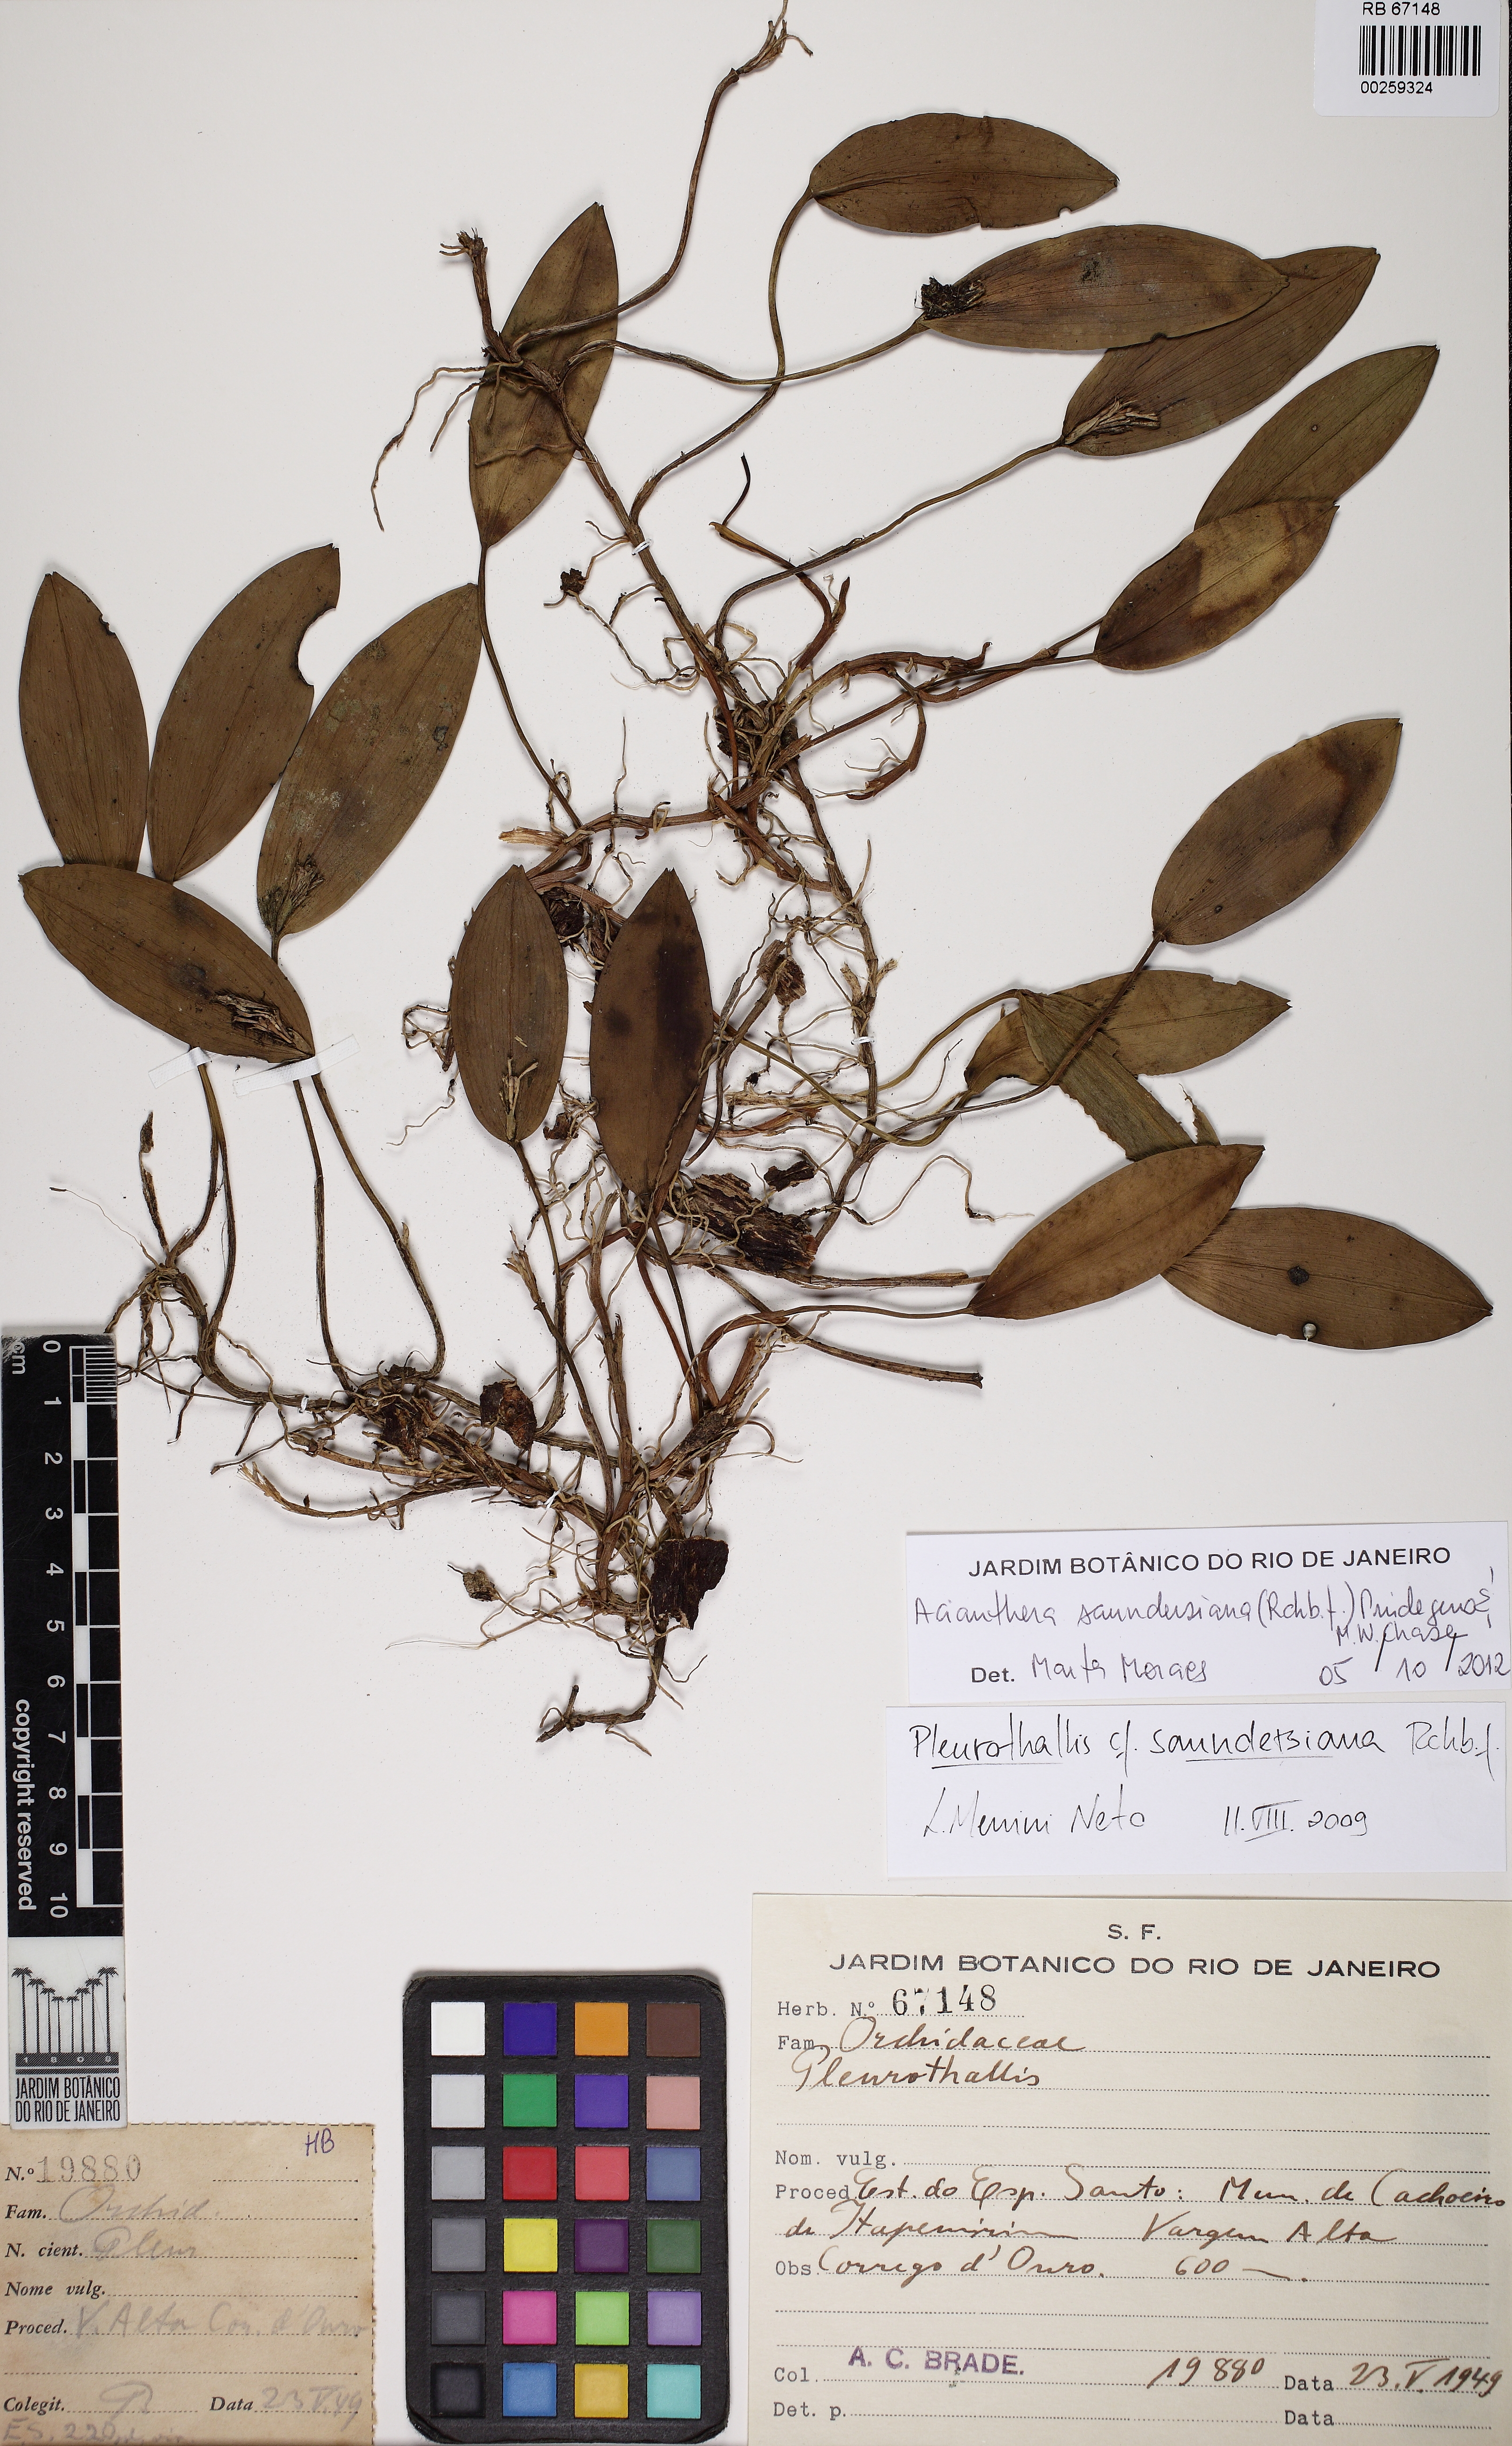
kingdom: Plantae
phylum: Tracheophyta
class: Liliopsida
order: Asparagales
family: Orchidaceae
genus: Acianthera
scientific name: Acianthera saundersiana
